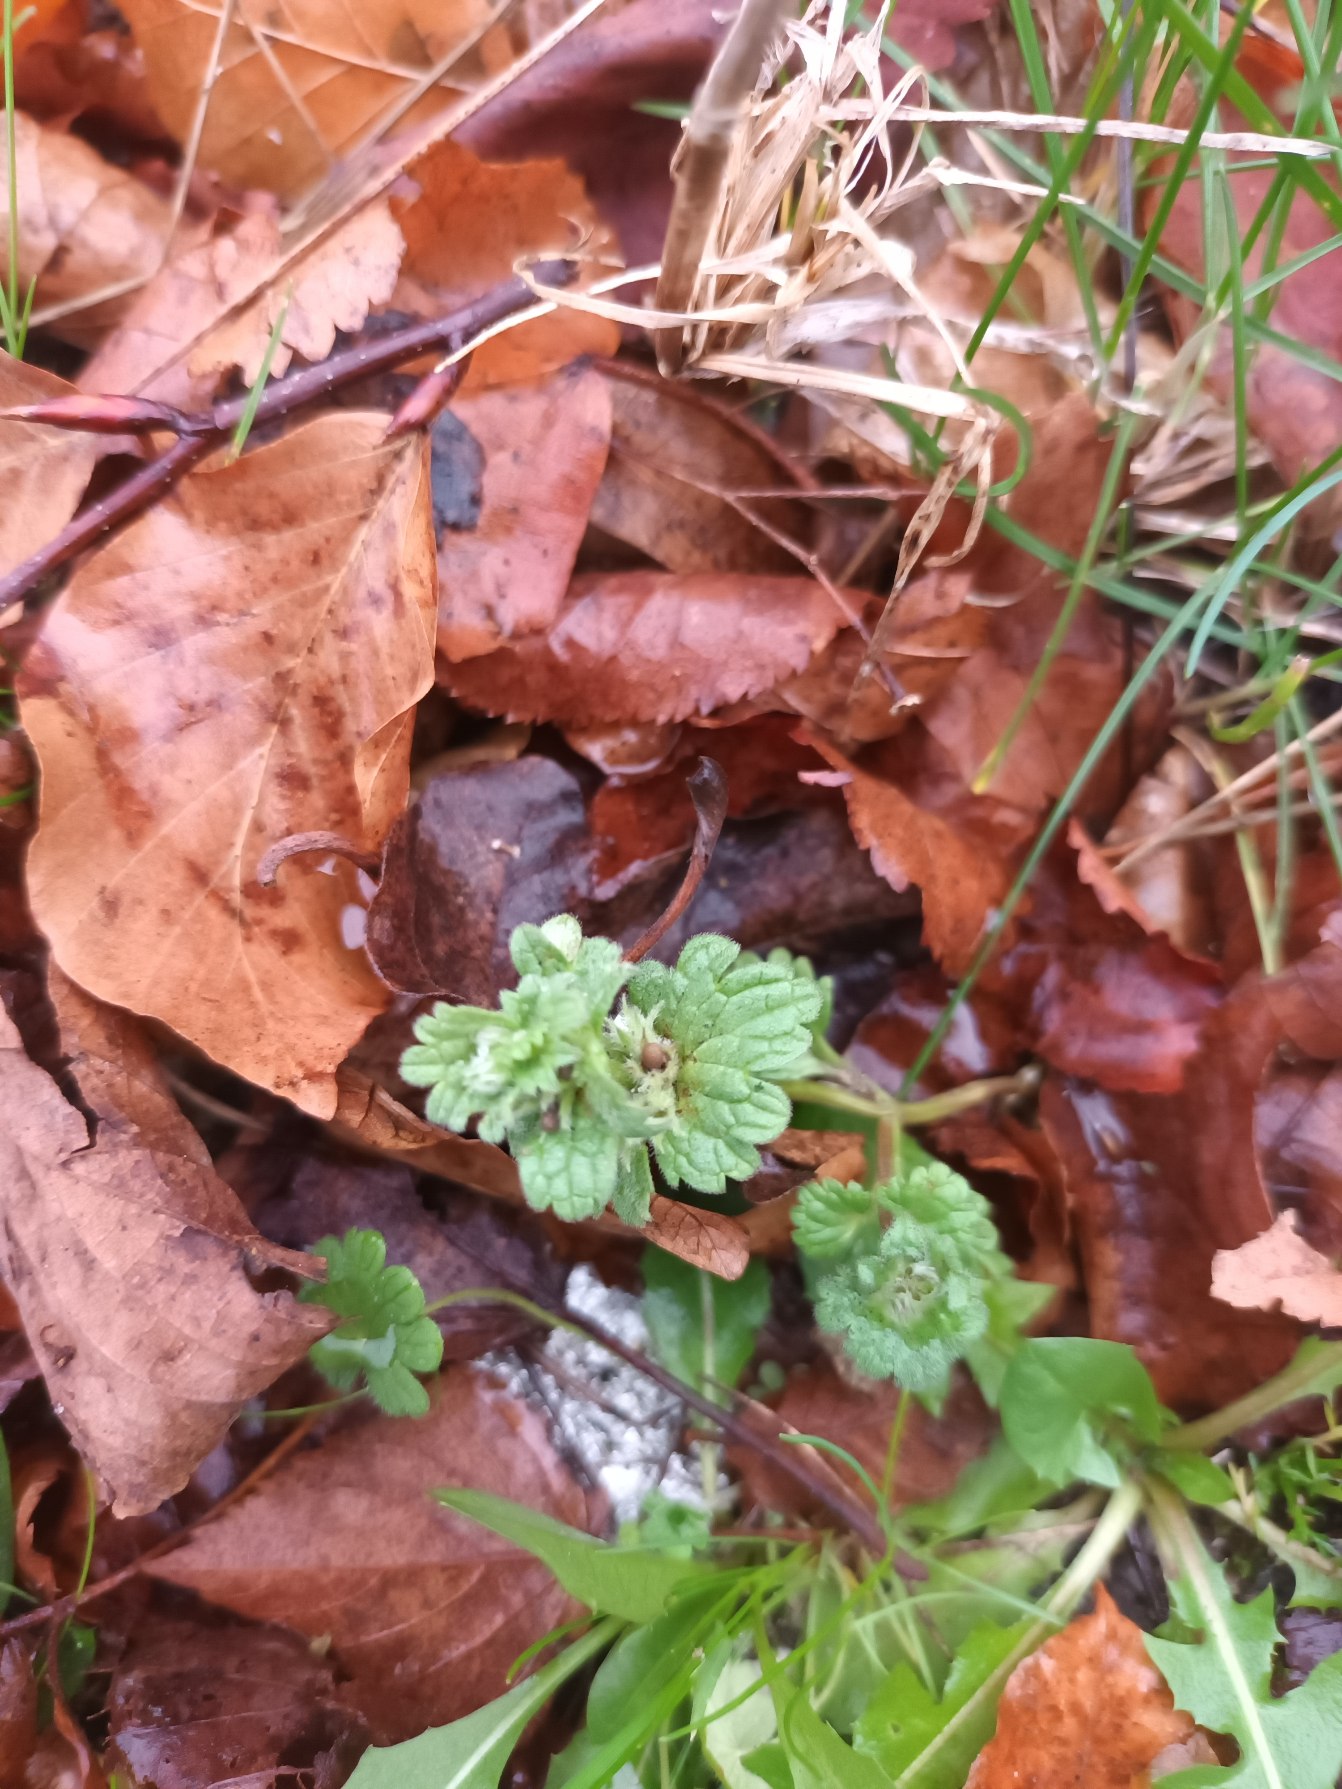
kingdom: Plantae
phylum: Tracheophyta
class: Magnoliopsida
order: Lamiales
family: Lamiaceae
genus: Lamium
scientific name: Lamium amplexicaule
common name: Liden tvetand
